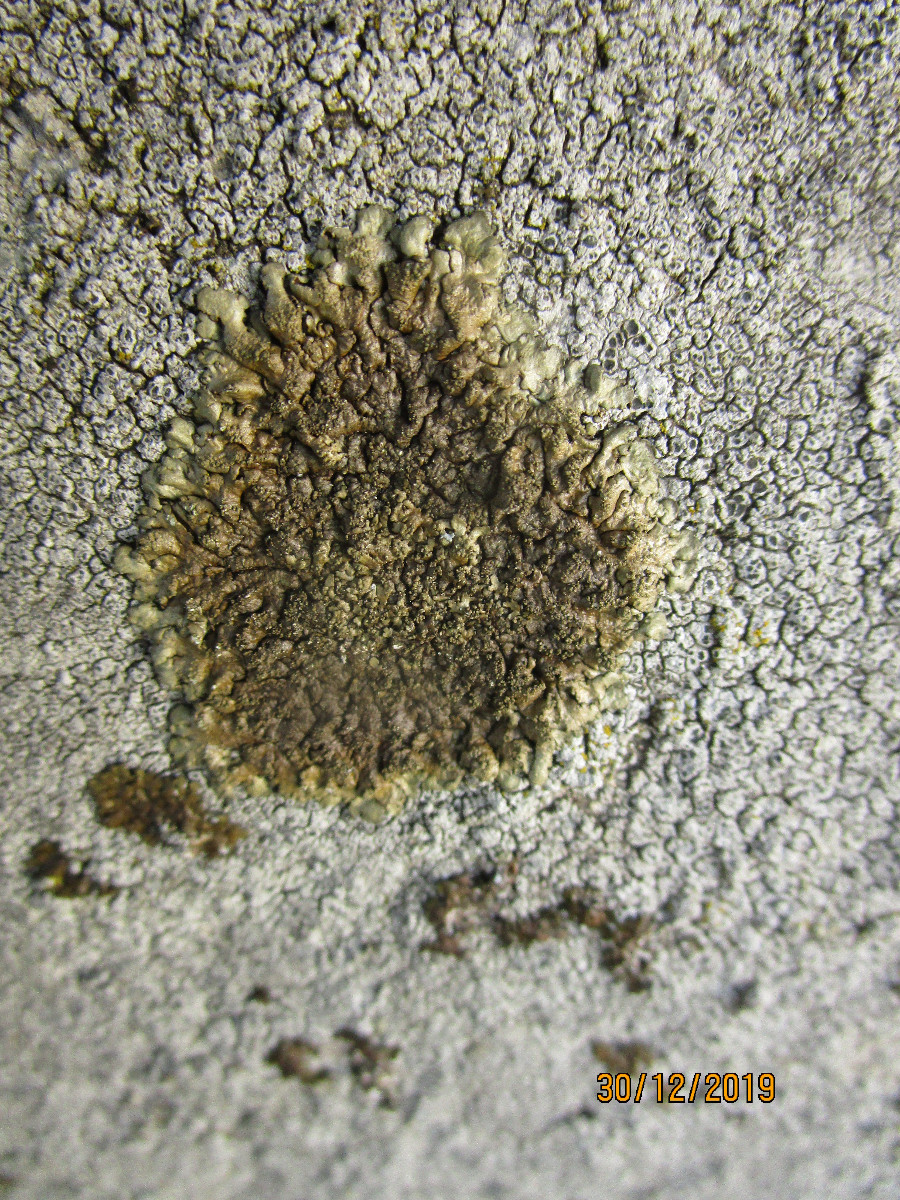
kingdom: Fungi
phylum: Ascomycota
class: Lecanoromycetes
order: Lecanorales
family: Parmeliaceae
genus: Xanthoparmelia
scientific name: Xanthoparmelia verruculifera
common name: småknoppet skållav
